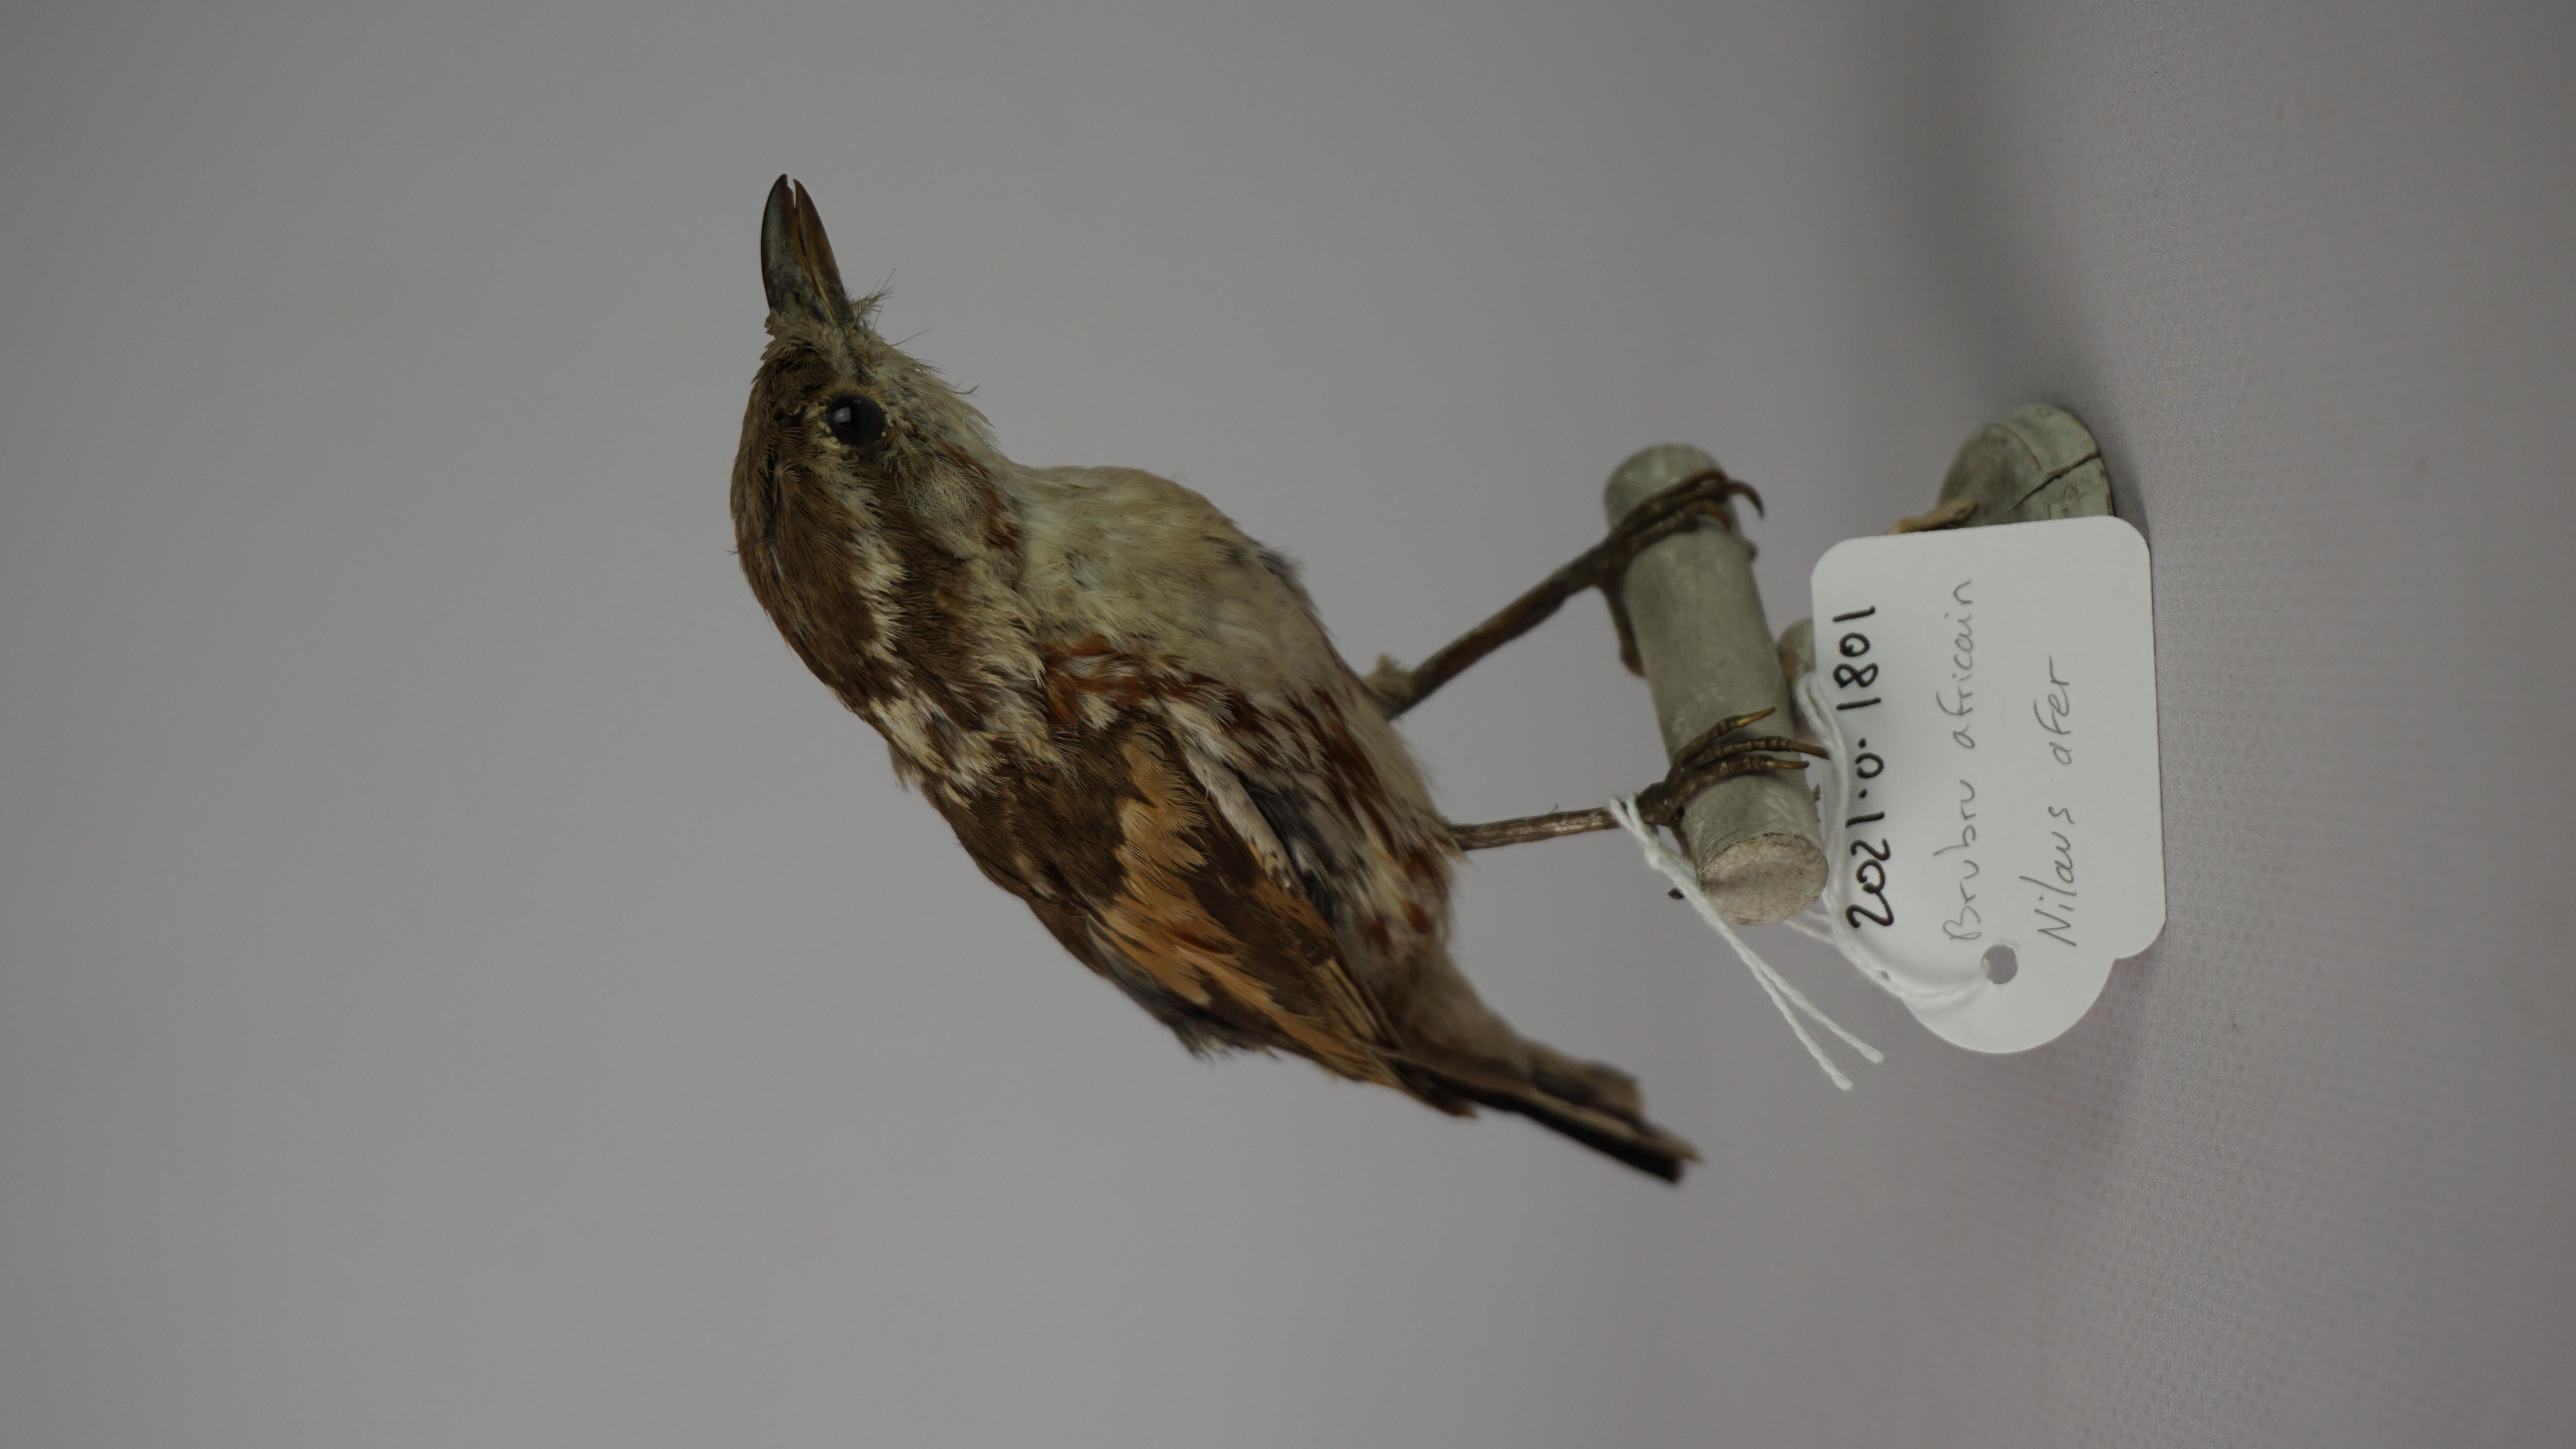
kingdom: Animalia
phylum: Chordata
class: Aves
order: Passeriformes
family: Malaconotidae
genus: Nilaus
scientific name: Nilaus afer
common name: Brubru
